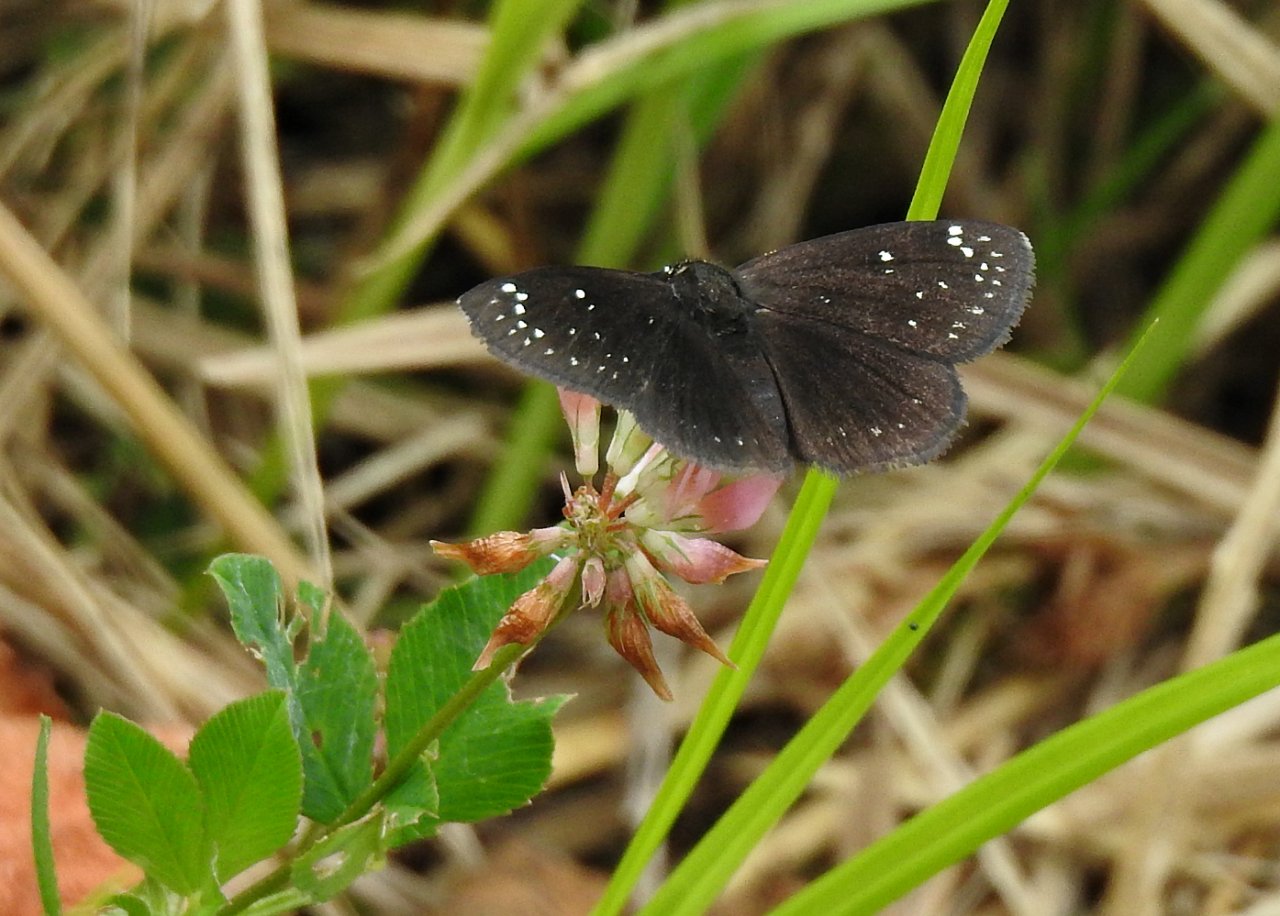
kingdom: Animalia
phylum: Arthropoda
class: Insecta
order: Lepidoptera
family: Hesperiidae
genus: Pholisora
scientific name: Pholisora catullus
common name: Common Sootywing
